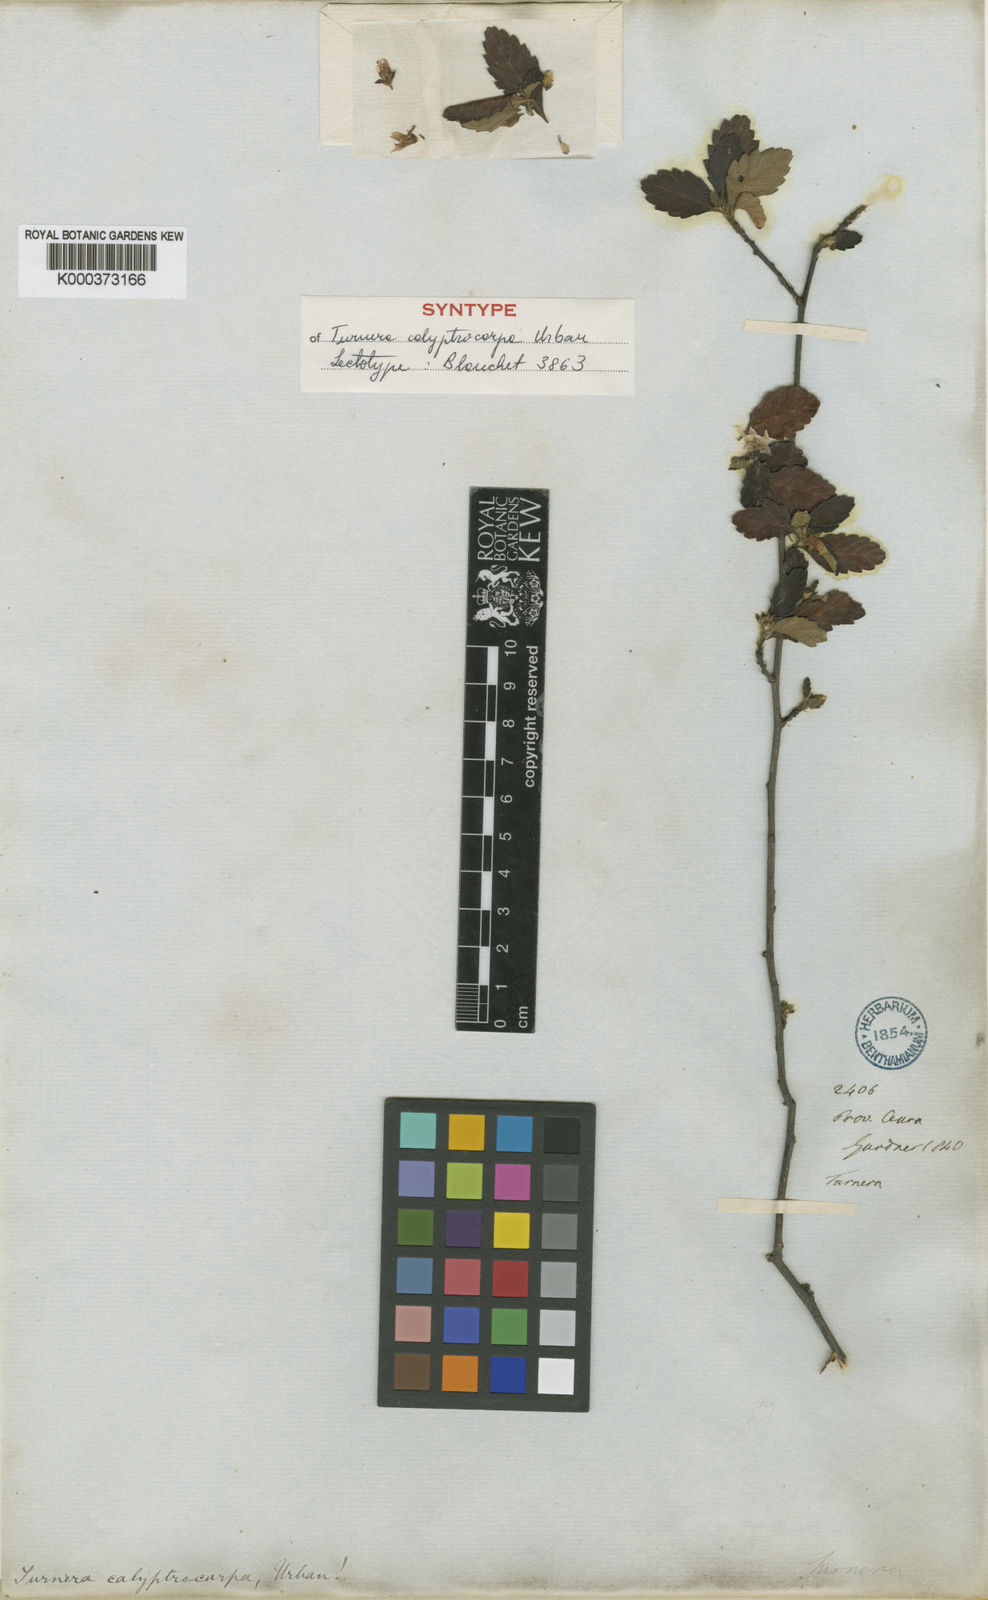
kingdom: Plantae
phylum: Tracheophyta
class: Magnoliopsida
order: Malpighiales
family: Turneraceae
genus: Oxossia
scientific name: Oxossia calyptrocarpa
